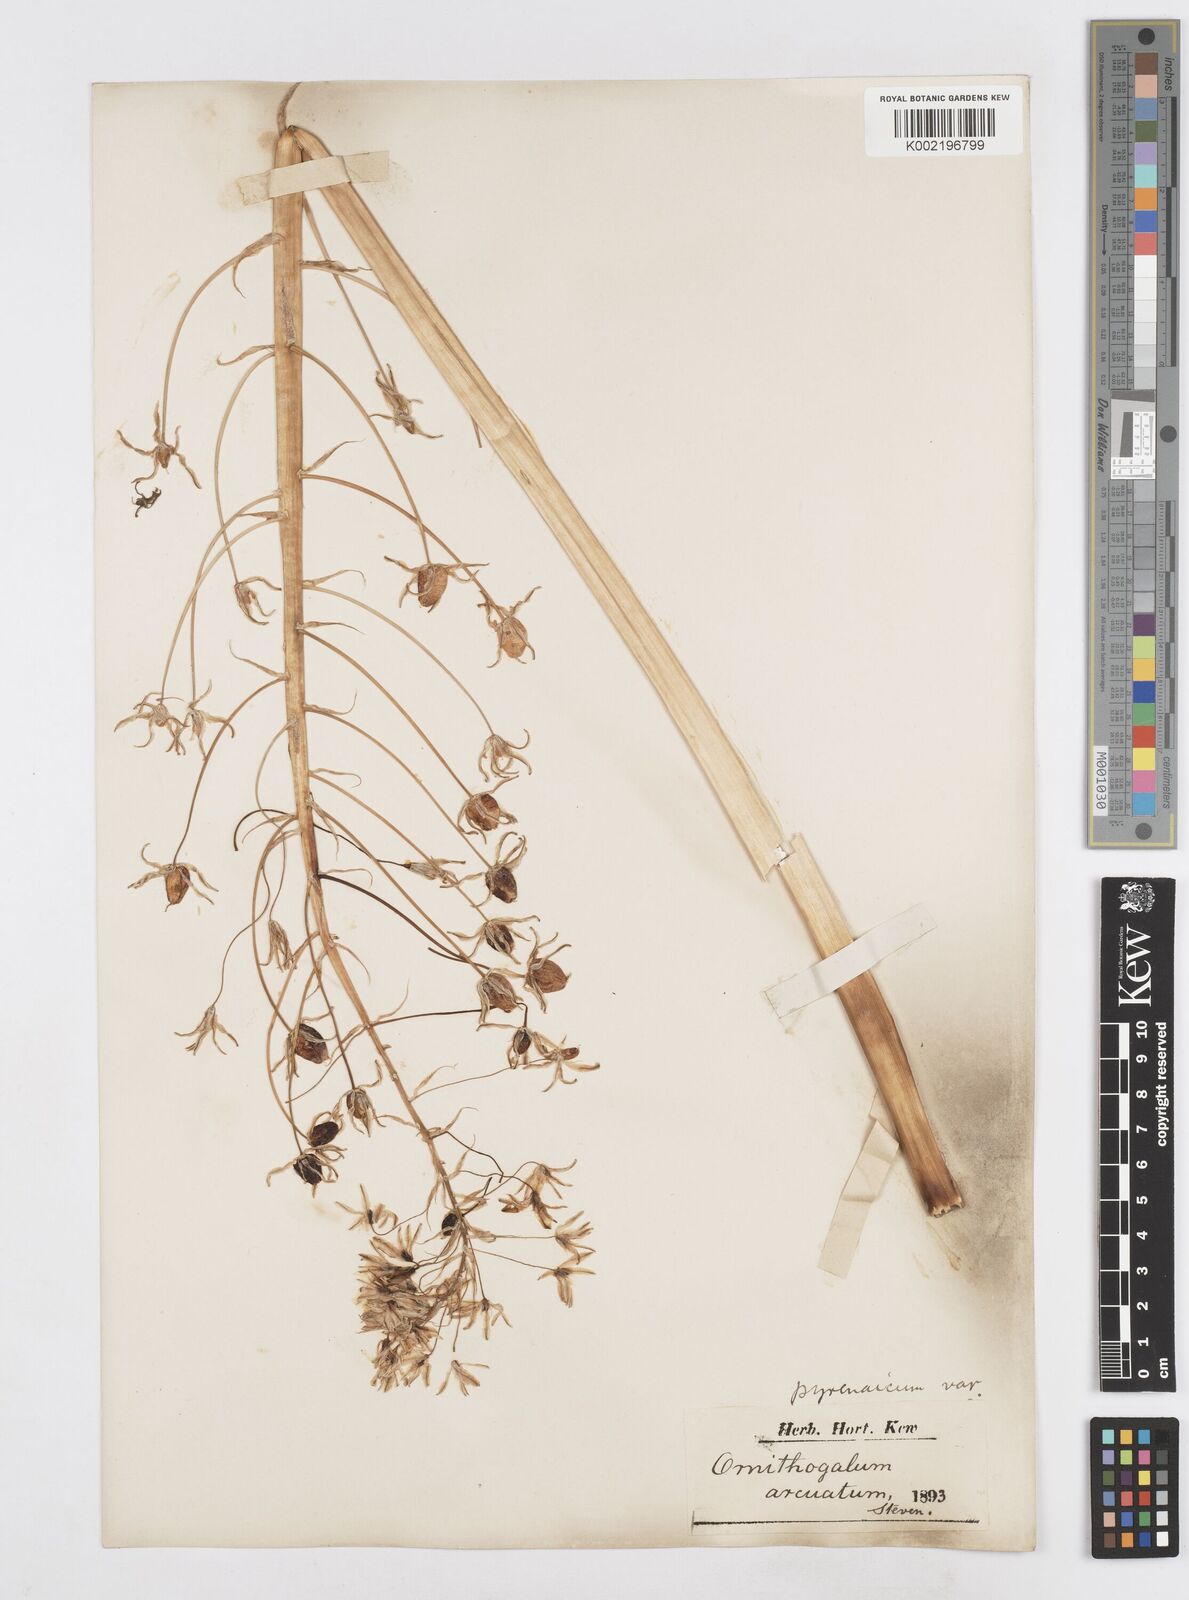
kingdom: Plantae
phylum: Tracheophyta
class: Liliopsida
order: Asparagales
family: Asparagaceae
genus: Ornithogalum
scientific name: Ornithogalum pyrenaicum
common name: Spiked star-of-bethlehem
